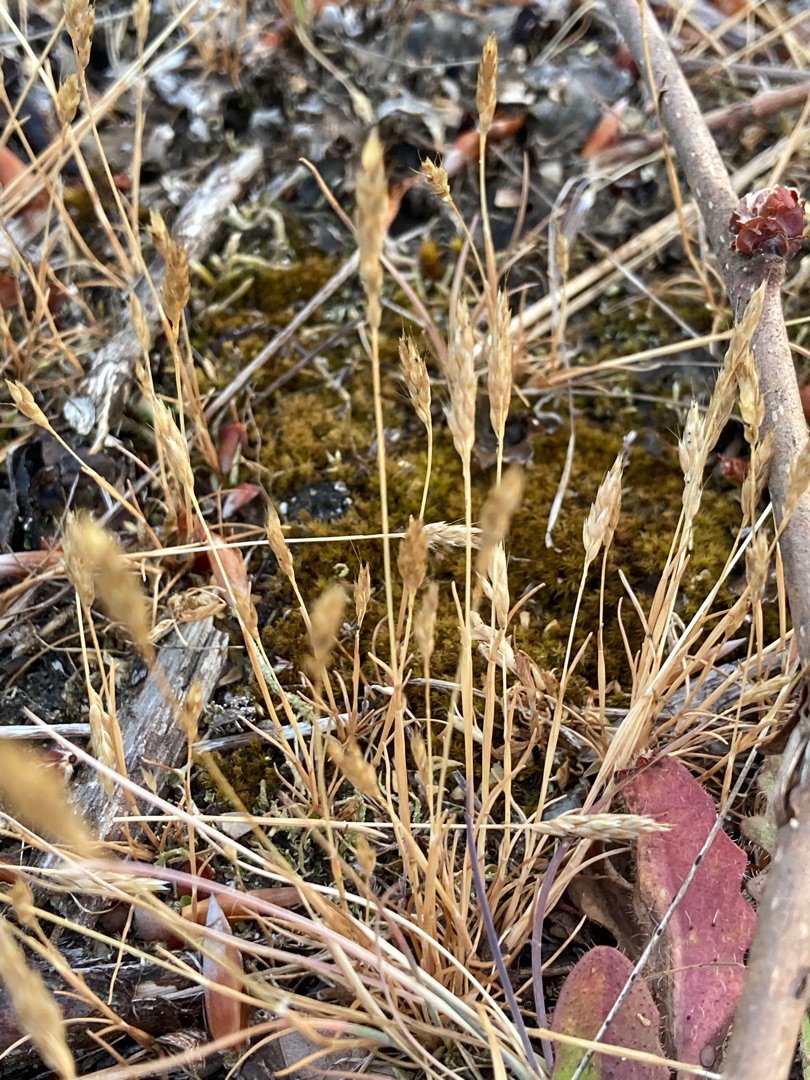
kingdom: Plantae
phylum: Tracheophyta
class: Liliopsida
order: Poales
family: Poaceae
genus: Aira
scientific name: Aira praecox
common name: Tidlig dværgbunke
